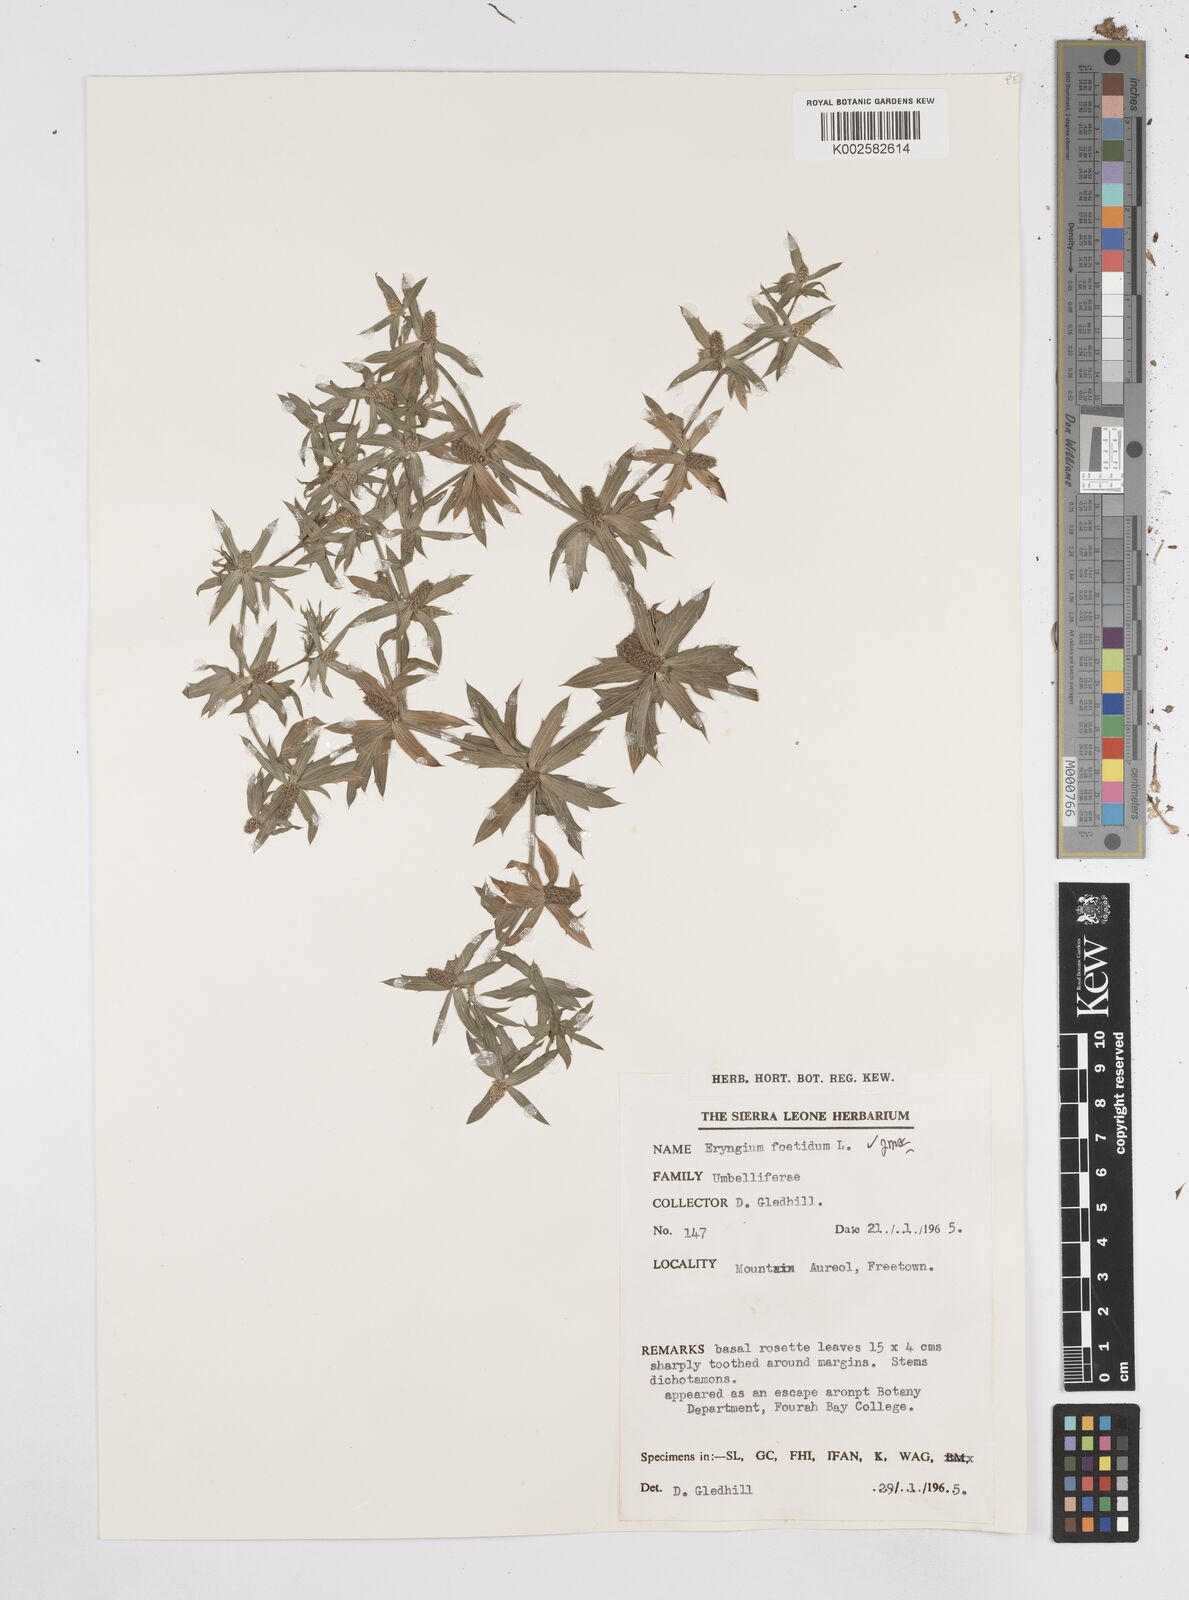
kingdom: Plantae
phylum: Tracheophyta
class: Magnoliopsida
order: Apiales
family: Apiaceae
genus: Eryngium
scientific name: Eryngium foetidum
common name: Fitweed
